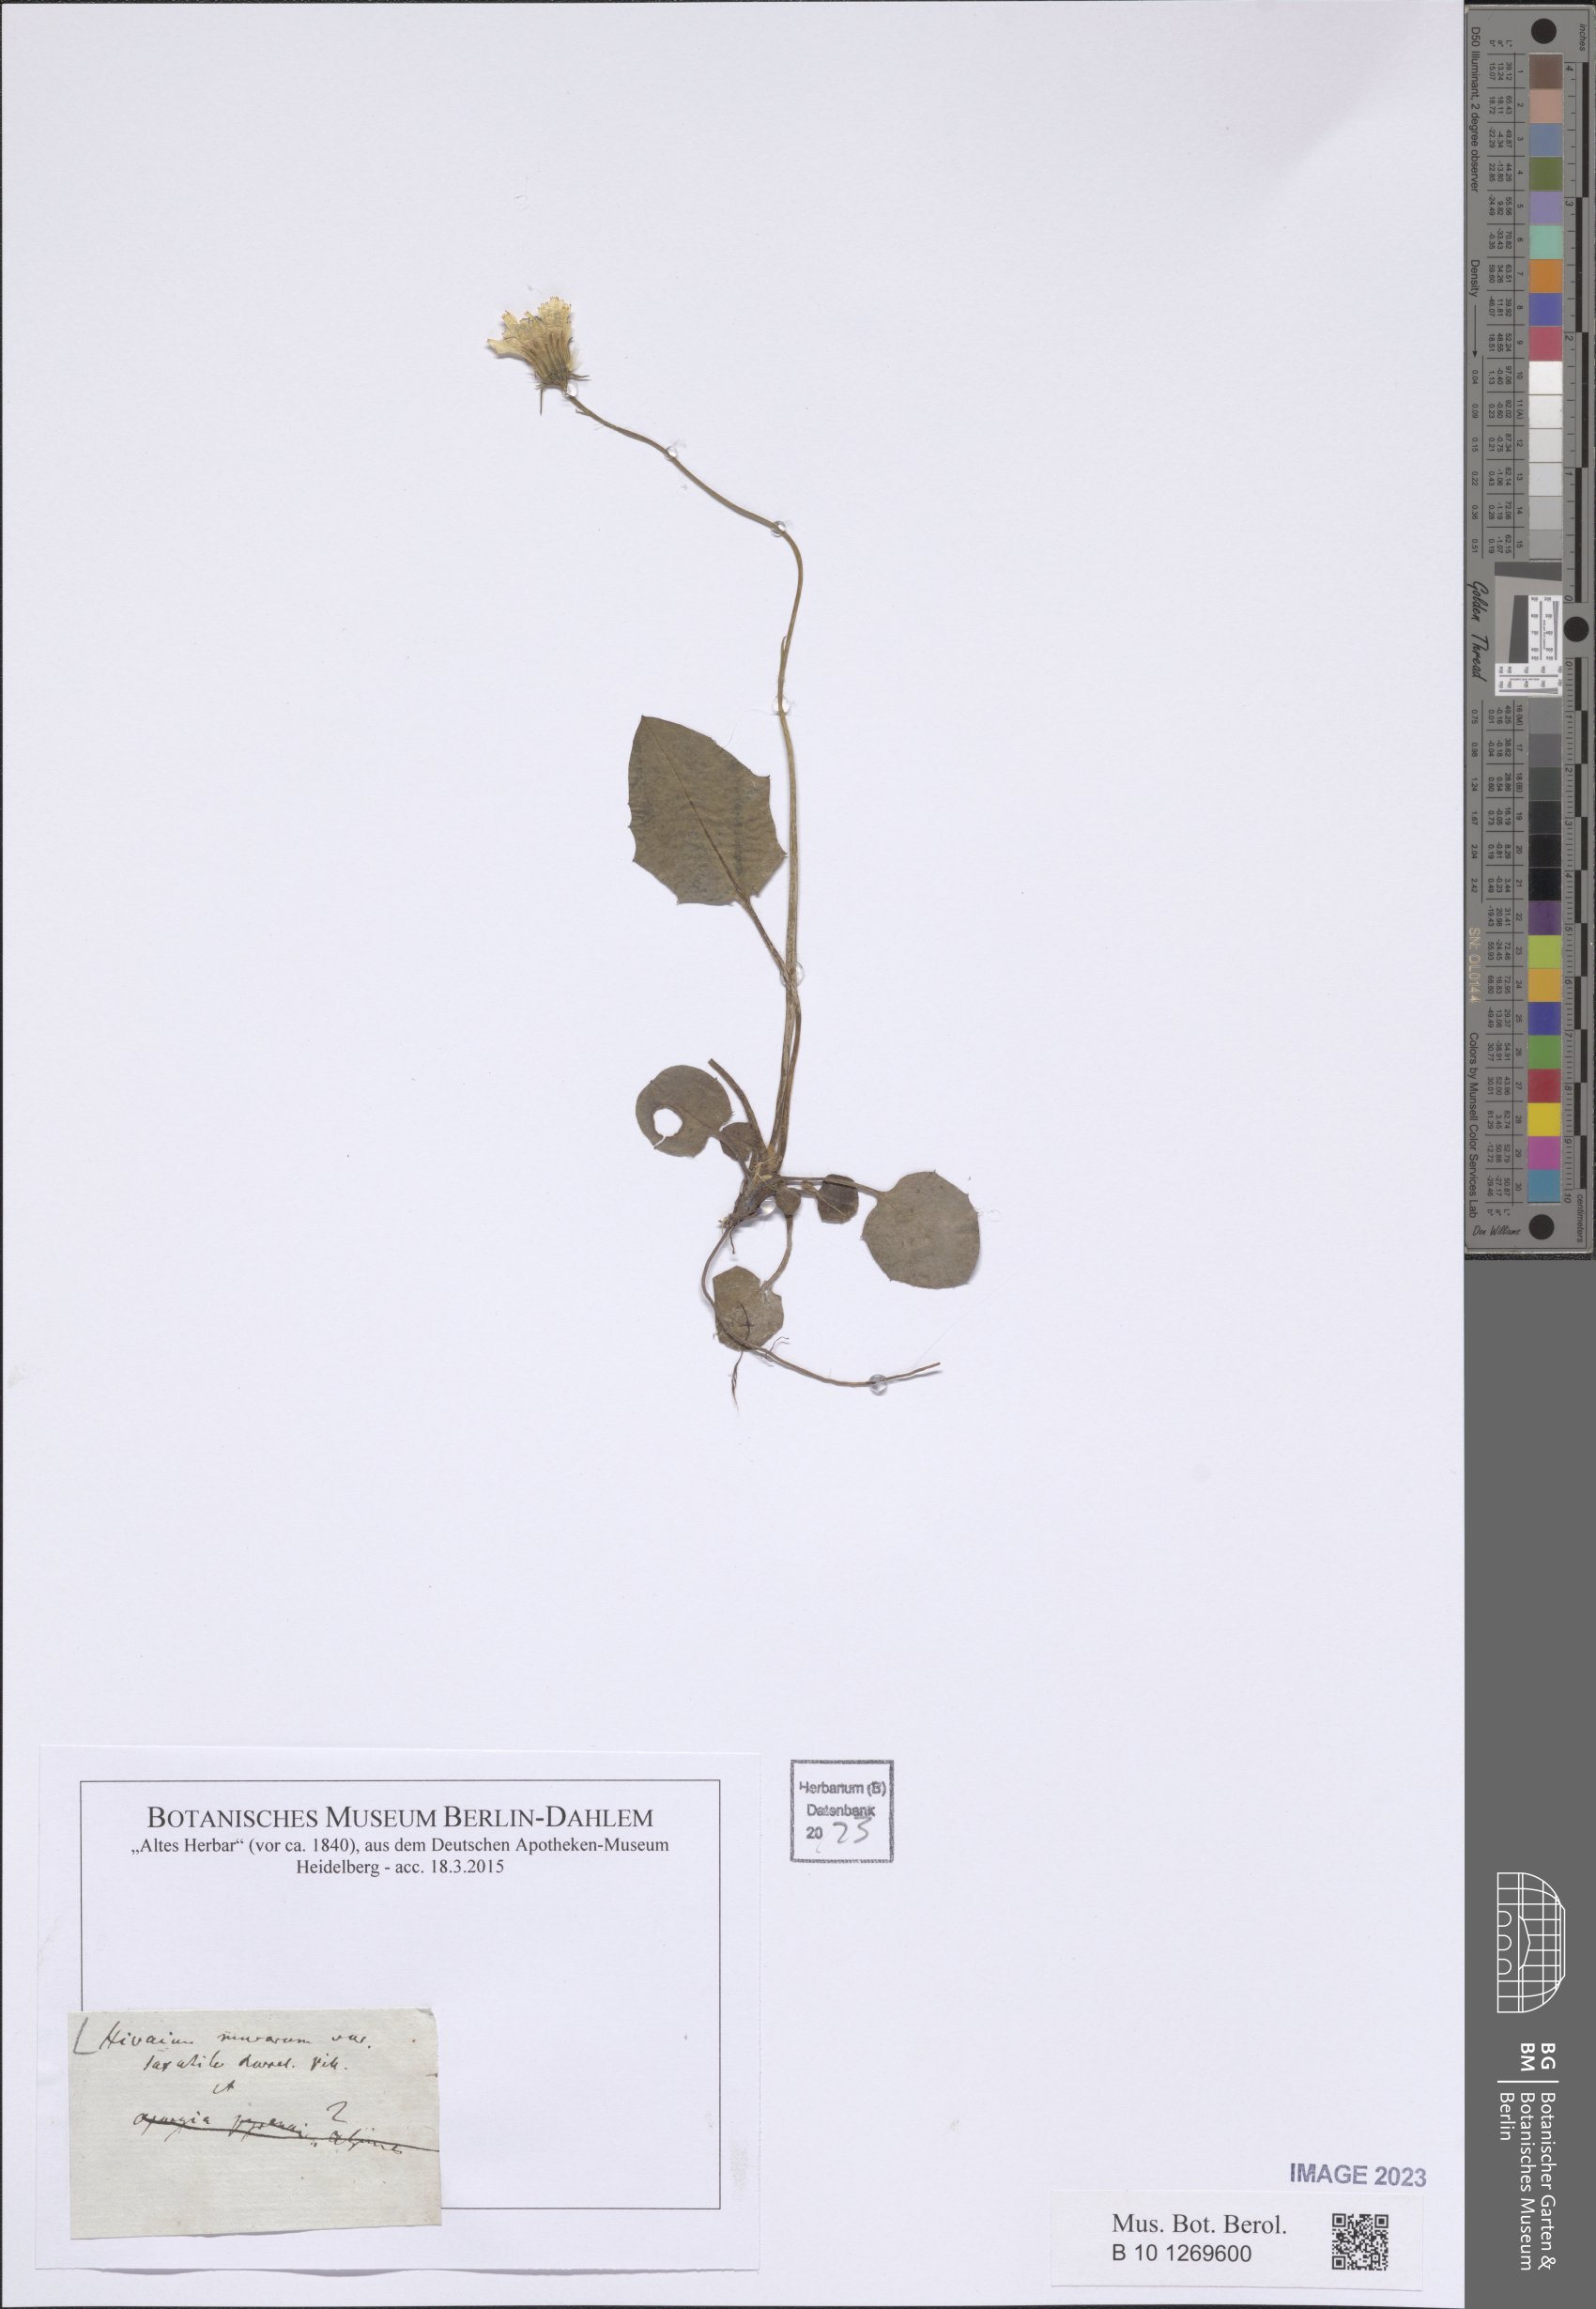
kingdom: Plantae
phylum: Tracheophyta
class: Magnoliopsida
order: Asterales
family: Asteraceae
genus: Hieracium
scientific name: Hieracium murorum
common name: Wall hawkweed
